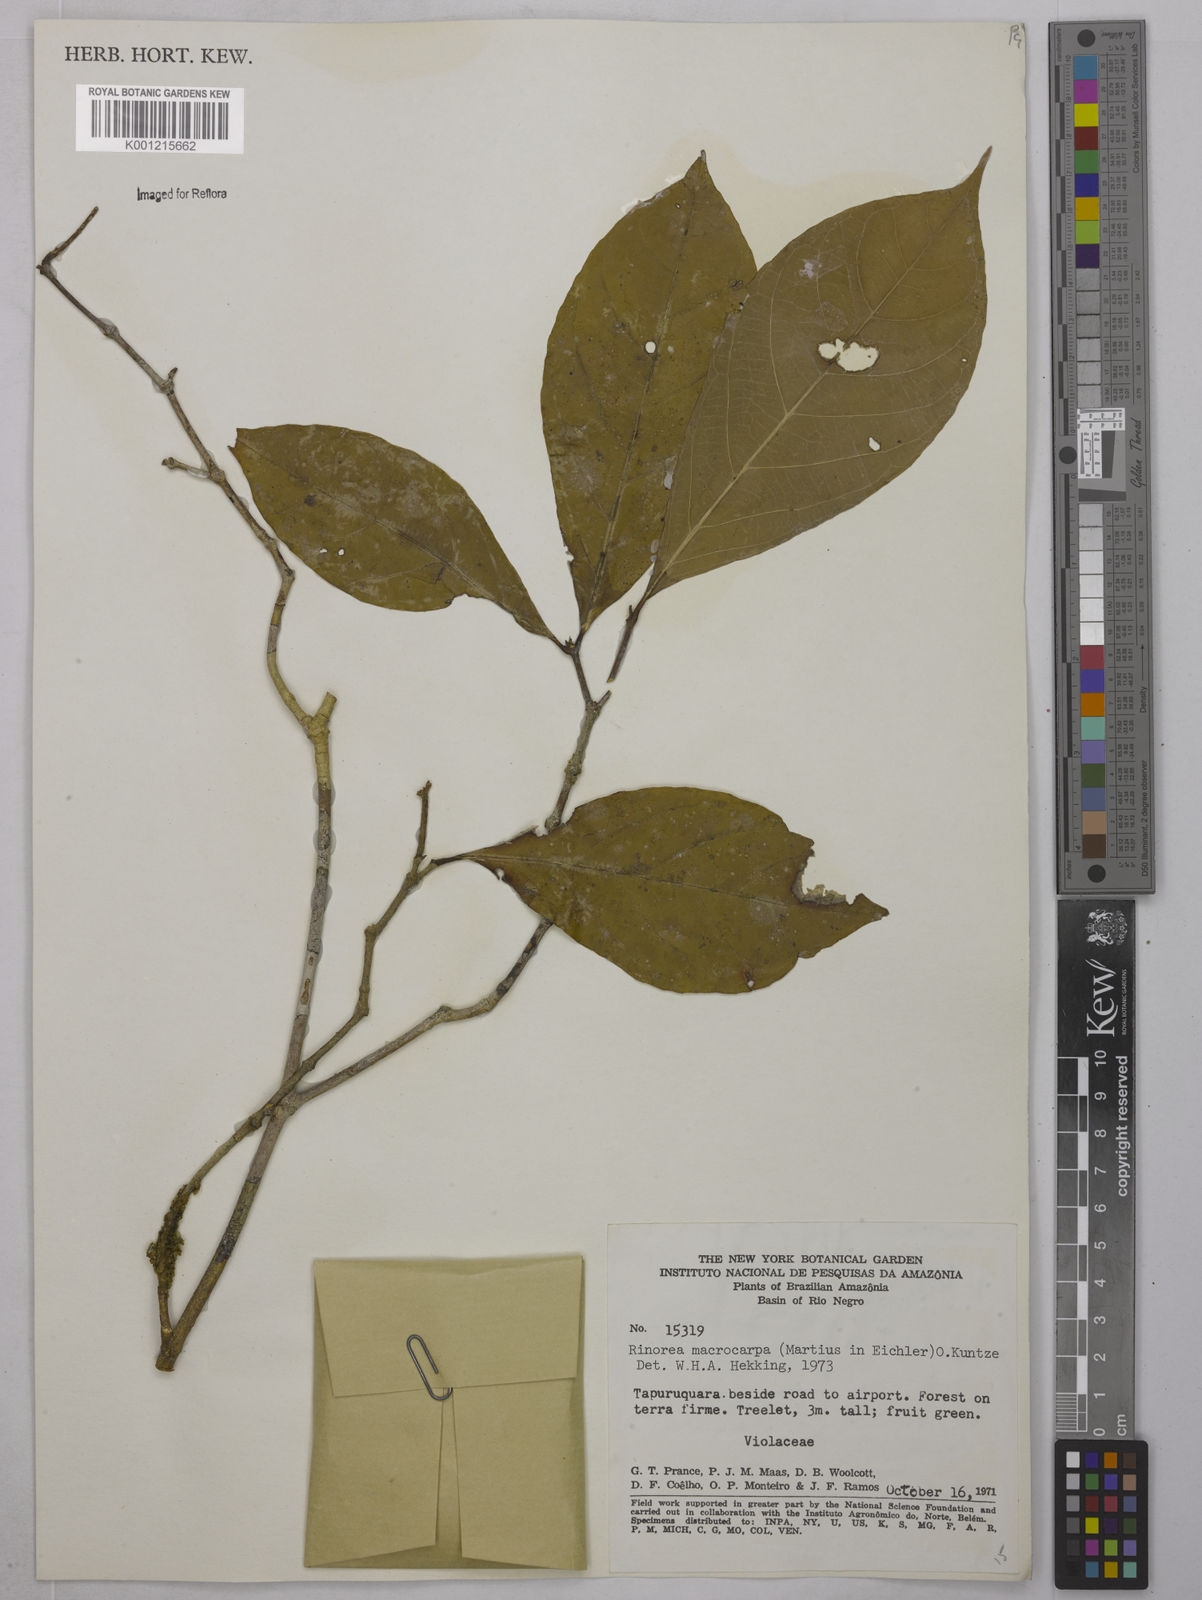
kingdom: Plantae
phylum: Tracheophyta
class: Magnoliopsida
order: Malpighiales
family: Violaceae
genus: Rinorea
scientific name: Rinorea macrocarpa
